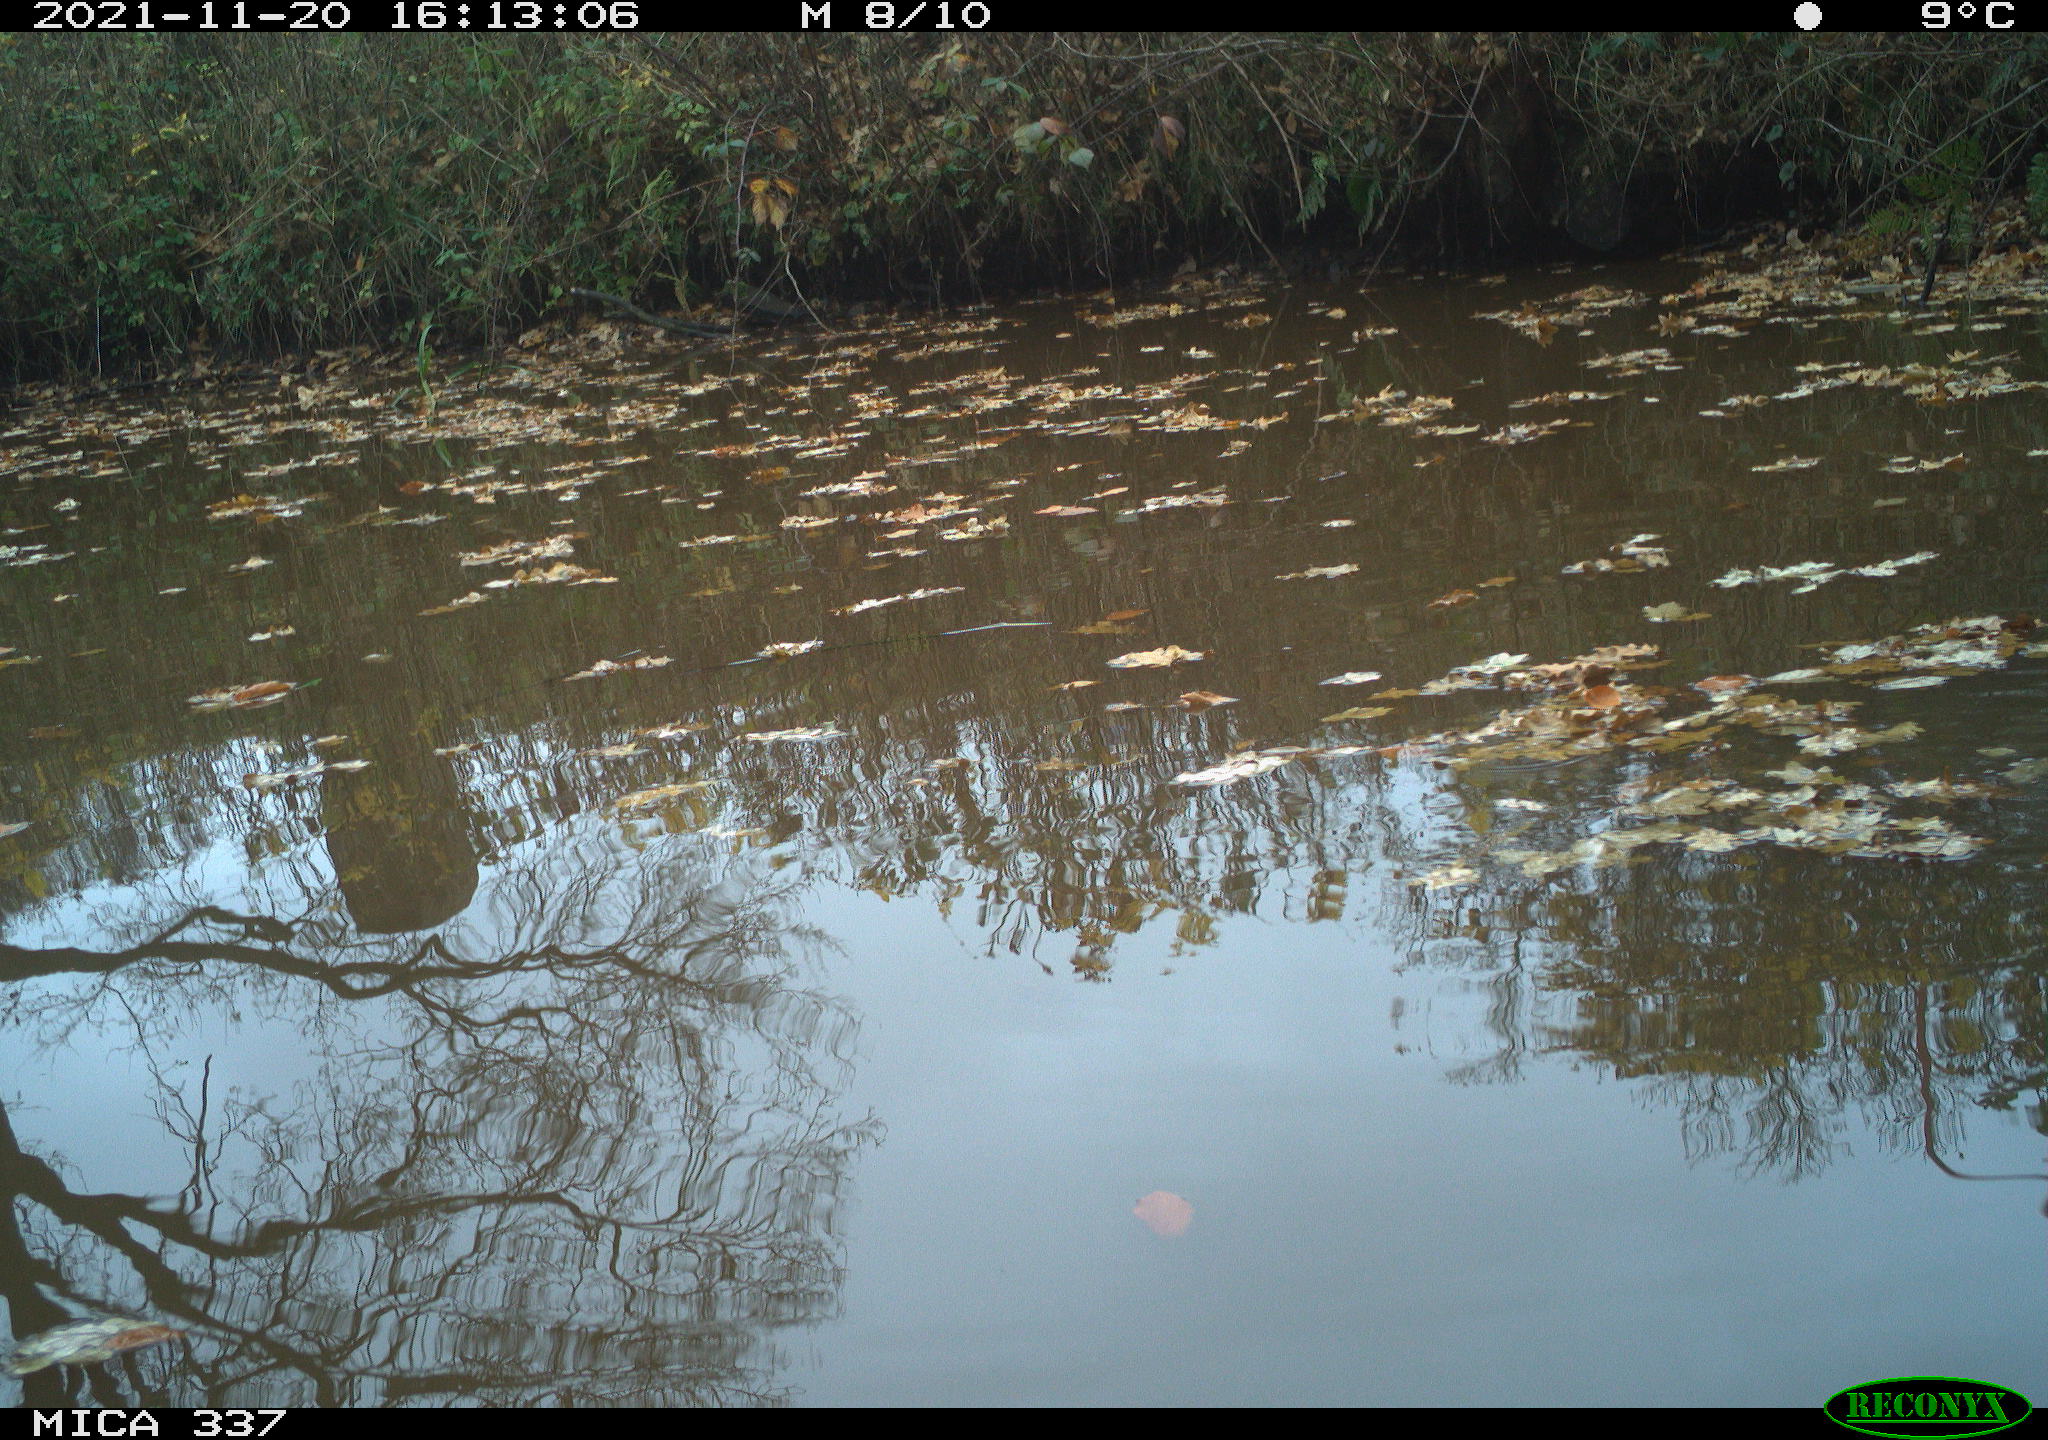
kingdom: Animalia
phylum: Chordata
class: Aves
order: Gruiformes
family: Rallidae
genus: Gallinula
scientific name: Gallinula chloropus
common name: Common moorhen
